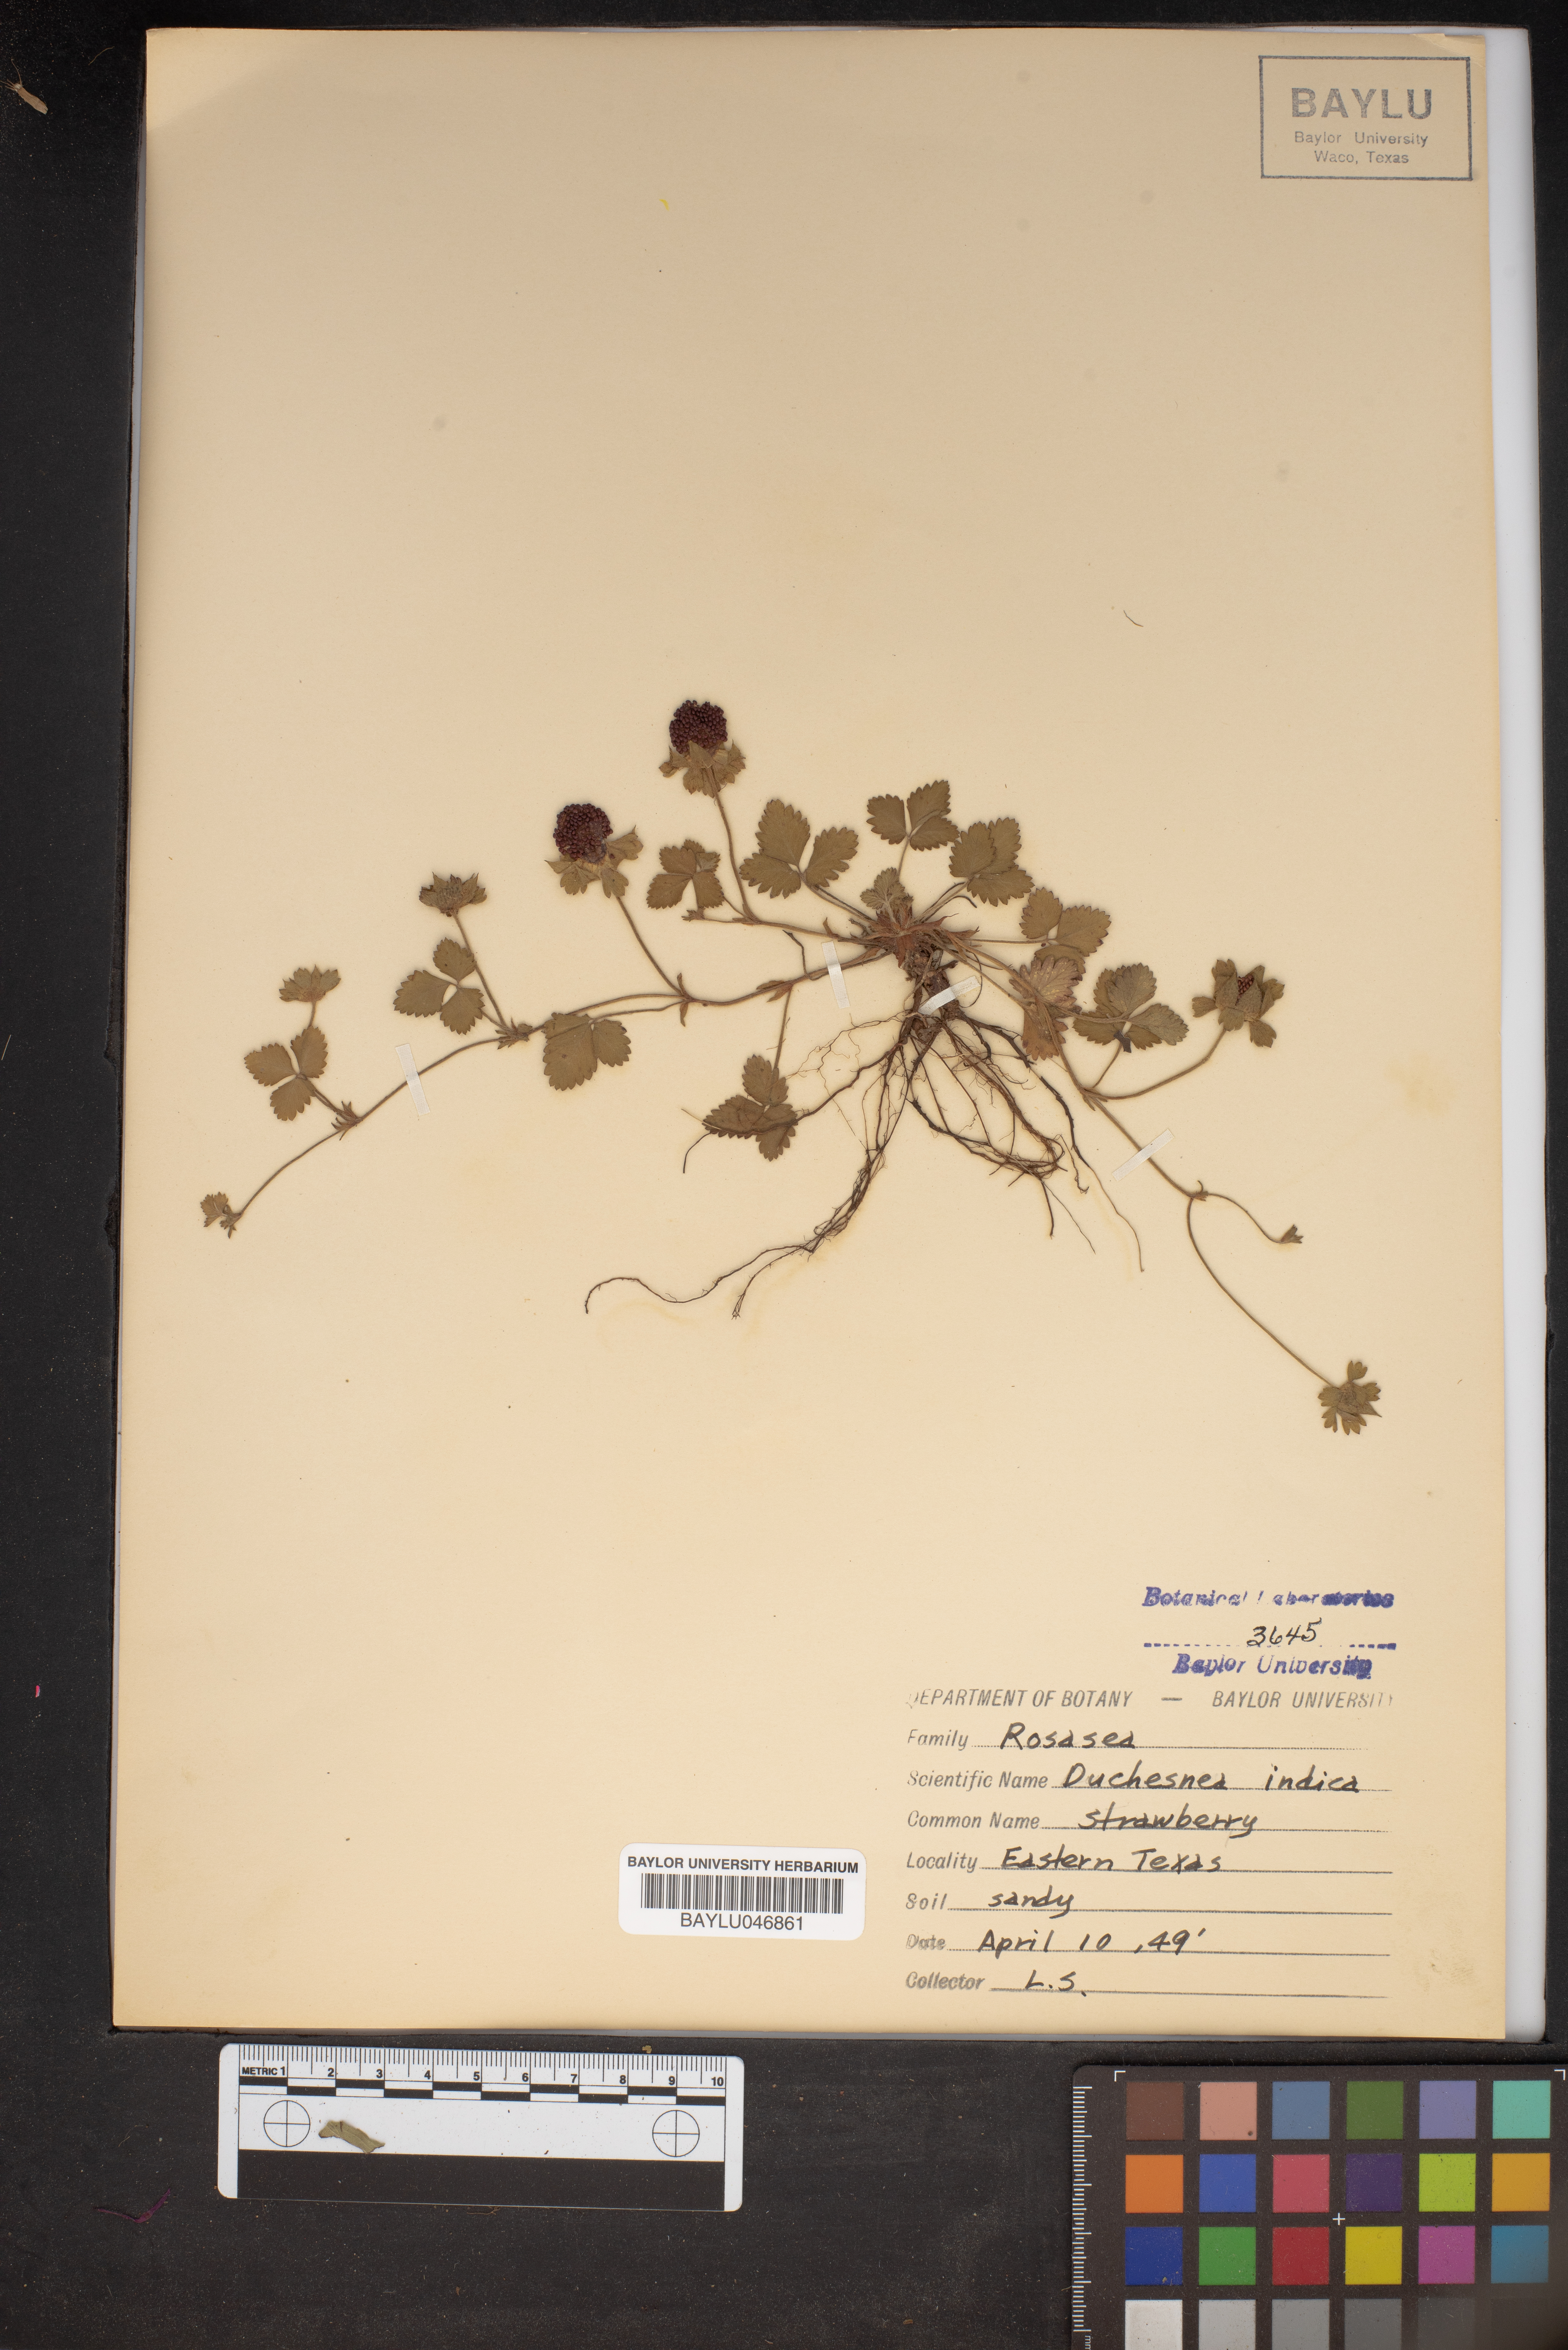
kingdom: Plantae
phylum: Tracheophyta
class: Magnoliopsida
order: Rosales
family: Rosaceae
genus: Potentilla
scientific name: Potentilla indica
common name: Yellow-flowered strawberry
